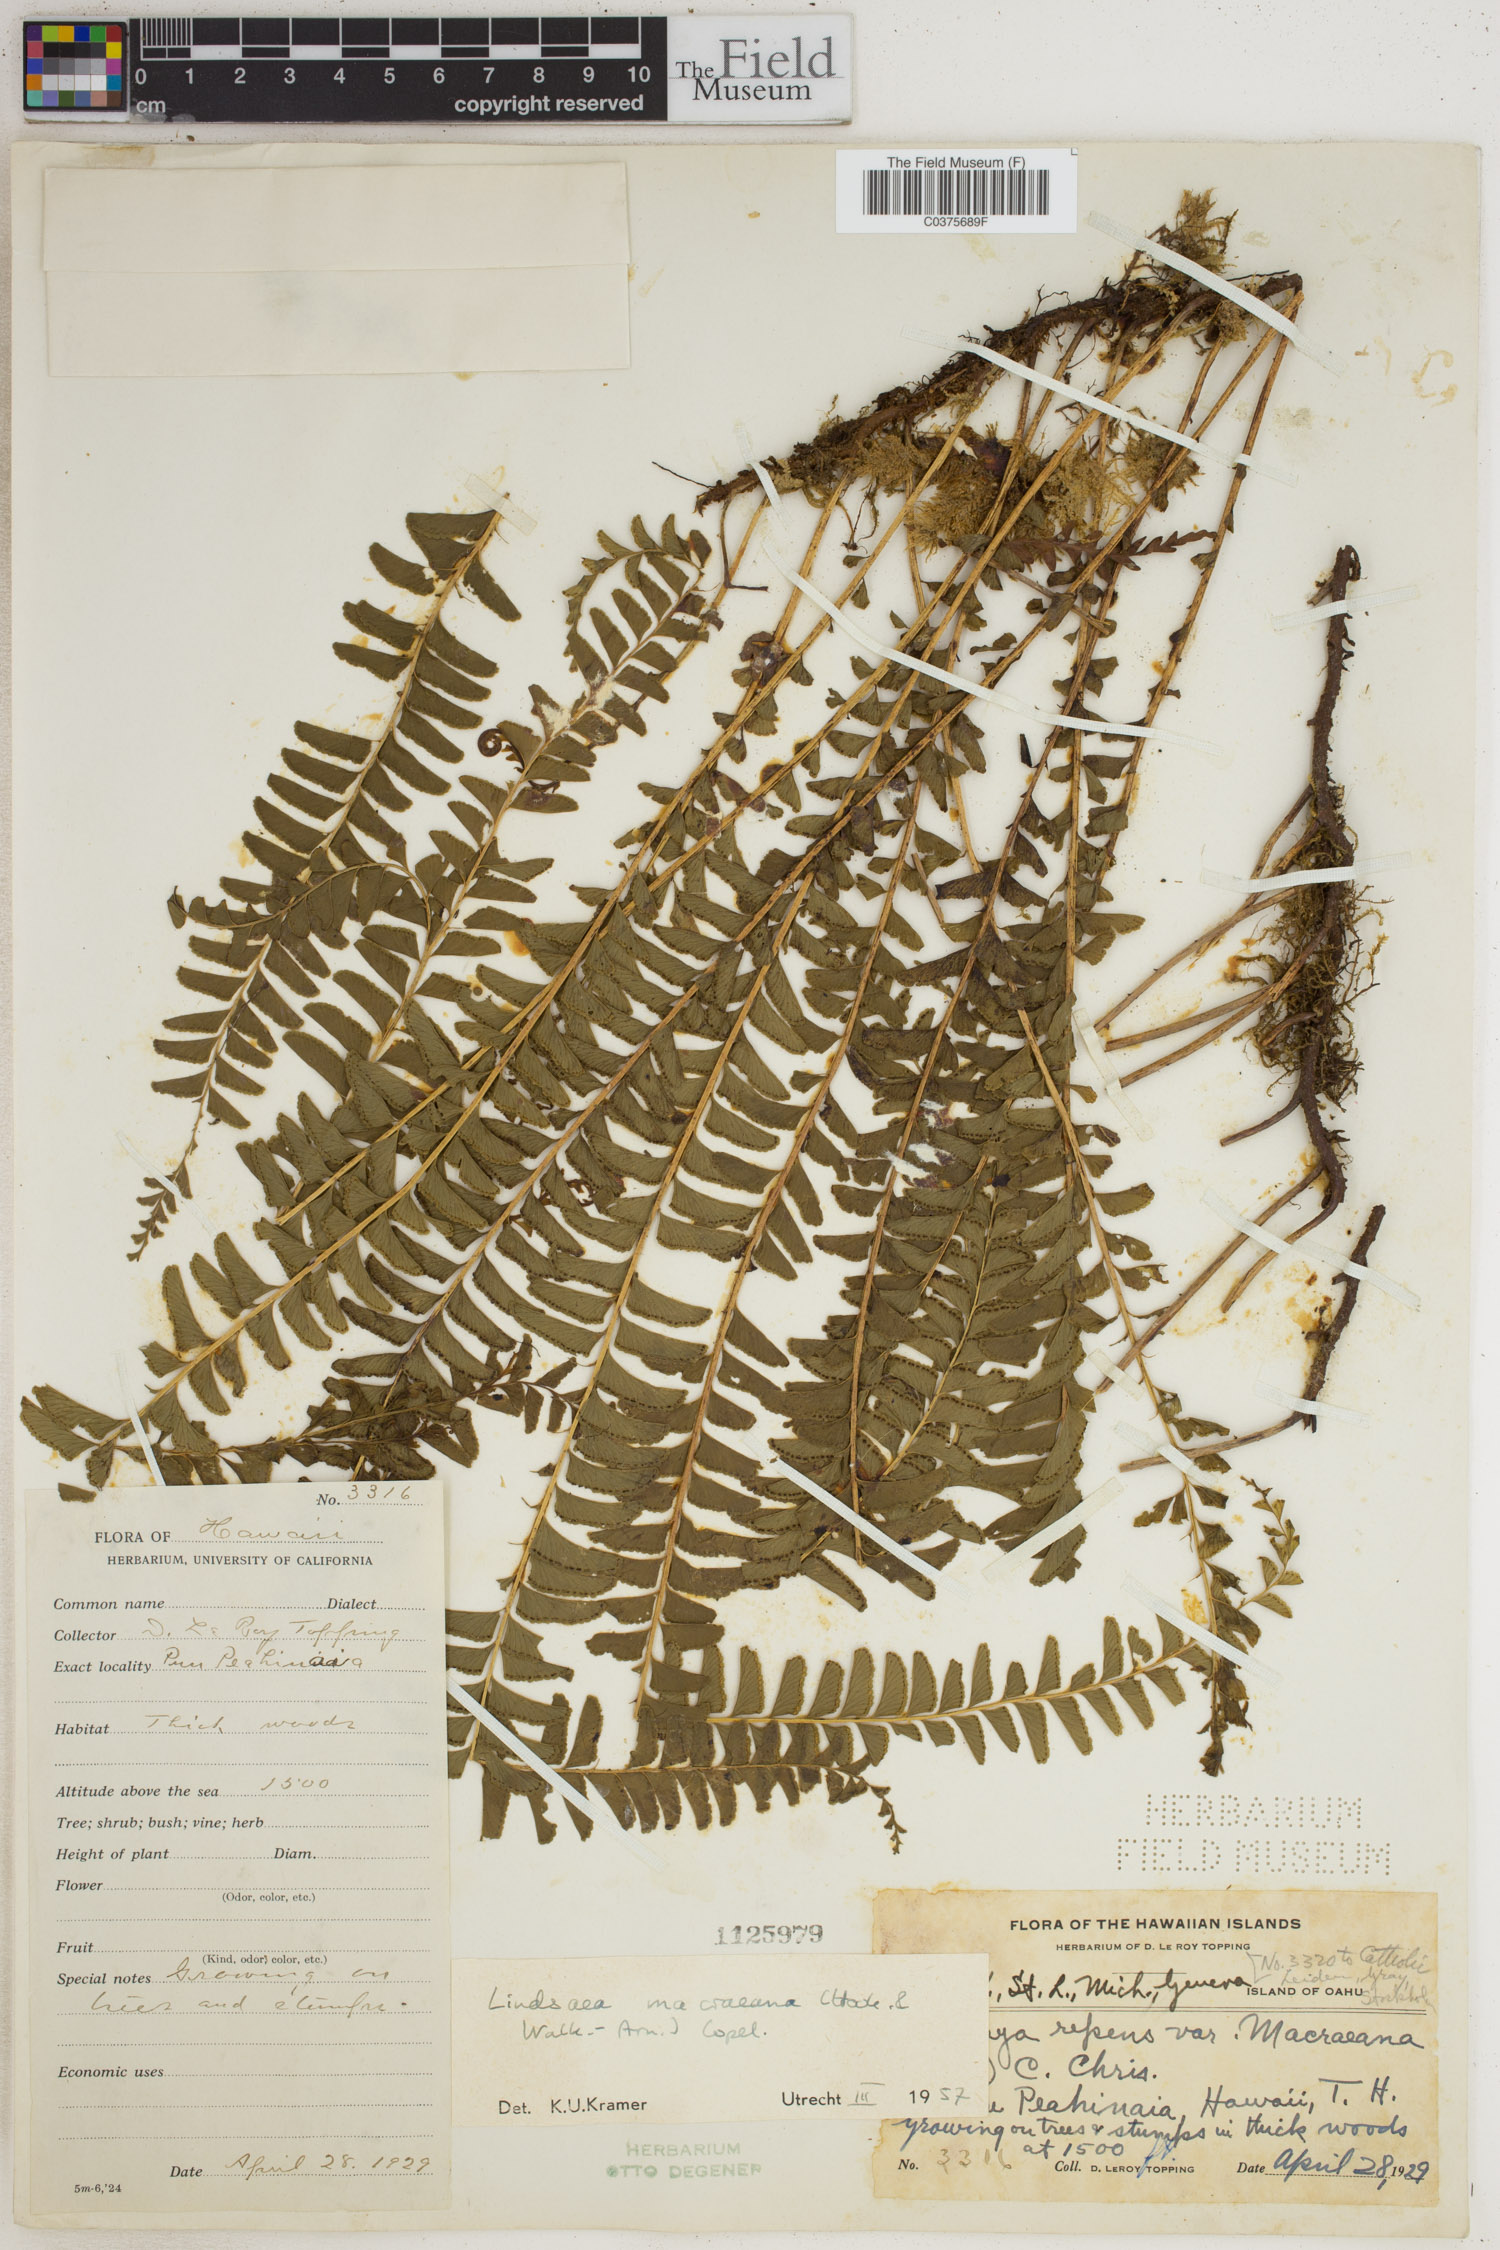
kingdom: Plantae
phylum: Tracheophyta
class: Polypodiopsida
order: Polypodiales
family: Lindsaeaceae
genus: Lindsaea
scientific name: Lindsaea macraeana
